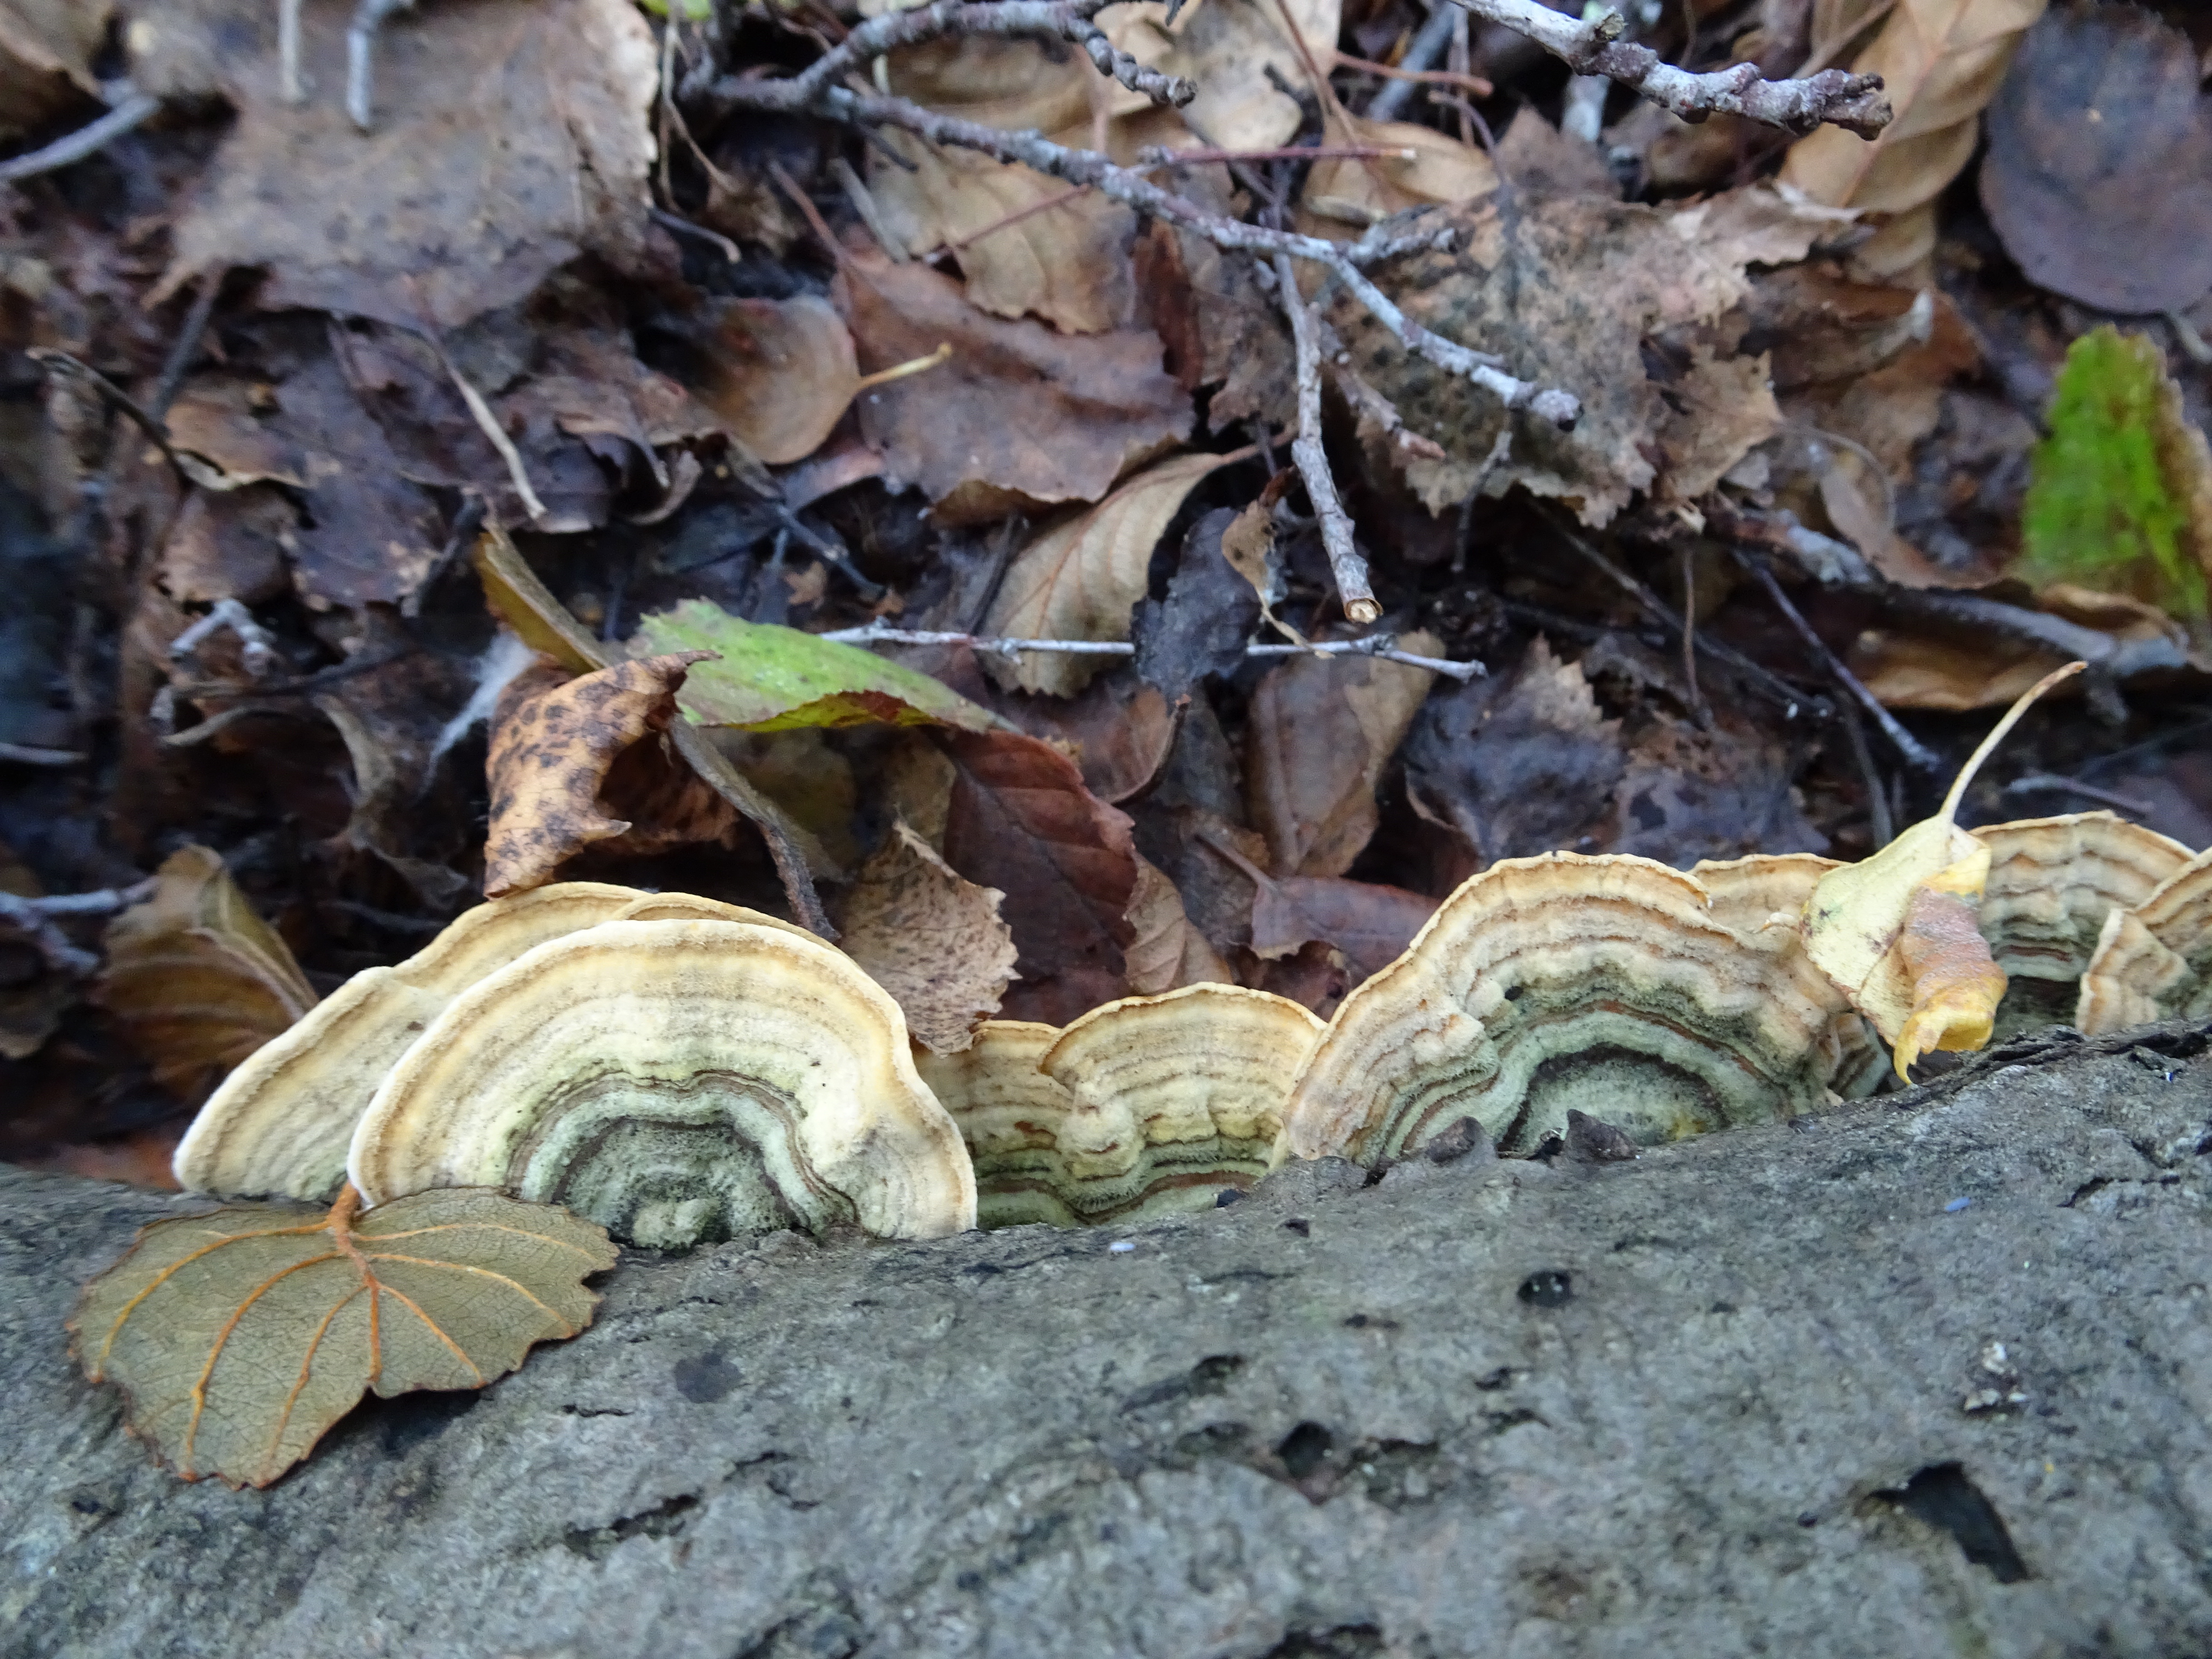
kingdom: Fungi
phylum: Basidiomycota
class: Agaricomycetes
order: Russulales
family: Stereaceae
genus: Stereum
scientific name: Stereum subtomentosum
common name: Yellowing curtain crust
